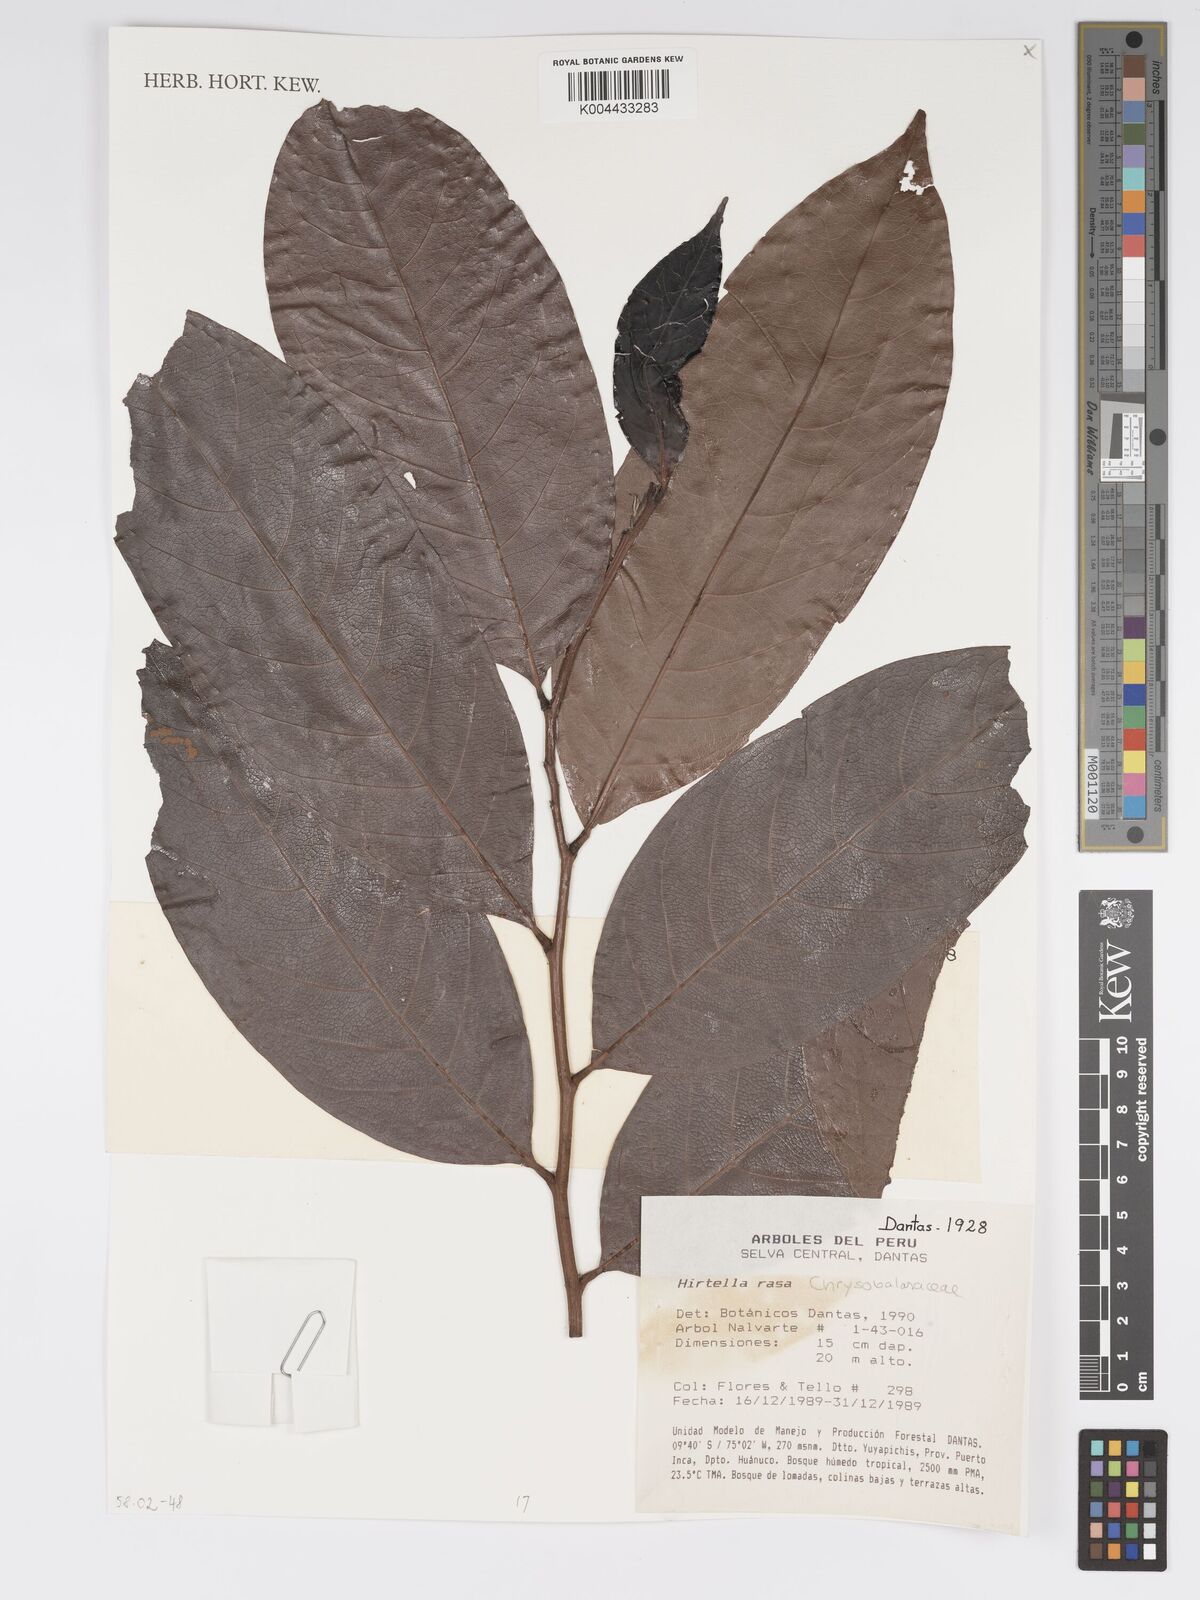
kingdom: Plantae
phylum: Tracheophyta
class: Magnoliopsida
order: Malpighiales
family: Chrysobalanaceae
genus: Hirtella
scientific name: Hirtella rasa
